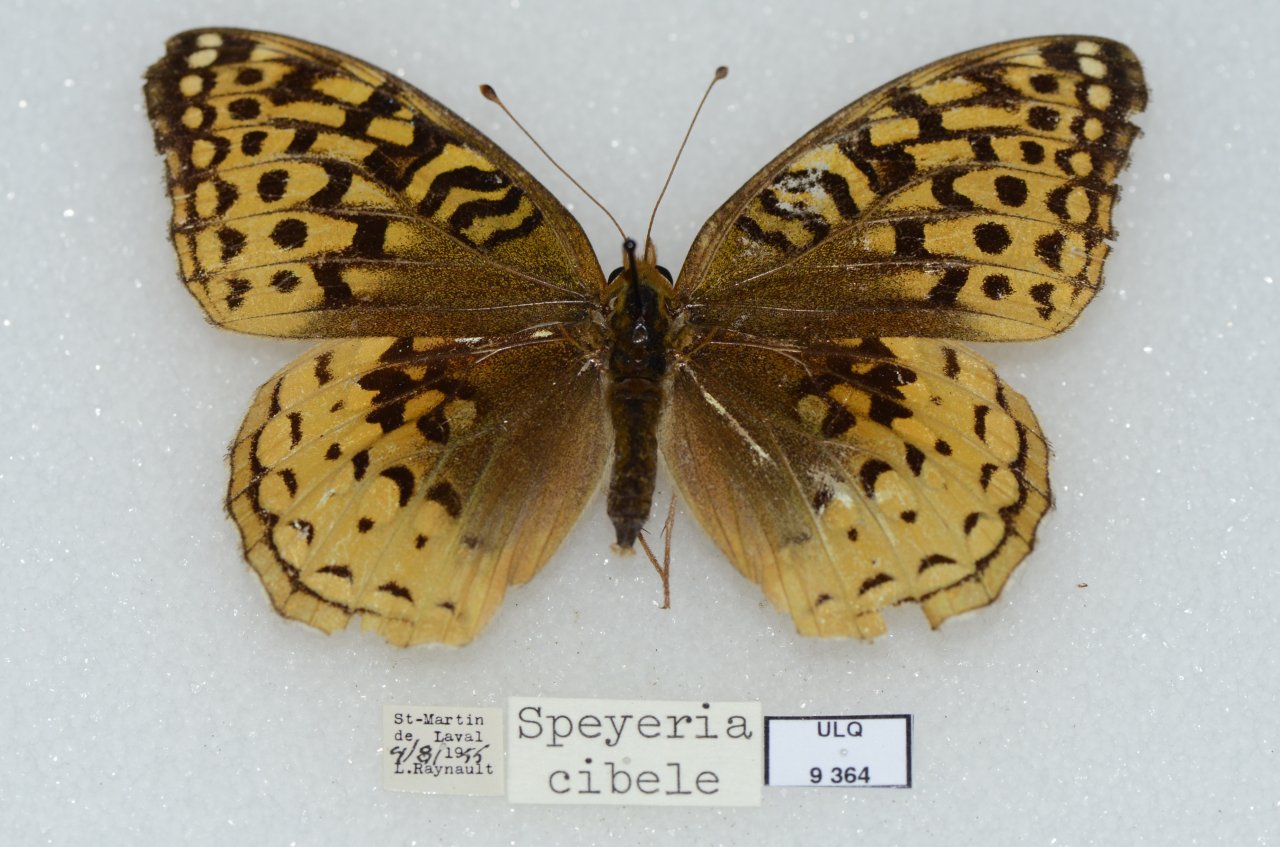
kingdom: Animalia
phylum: Arthropoda
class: Insecta
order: Lepidoptera
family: Nymphalidae
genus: Speyeria
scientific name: Speyeria cybele
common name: Great Spangled Fritillary
